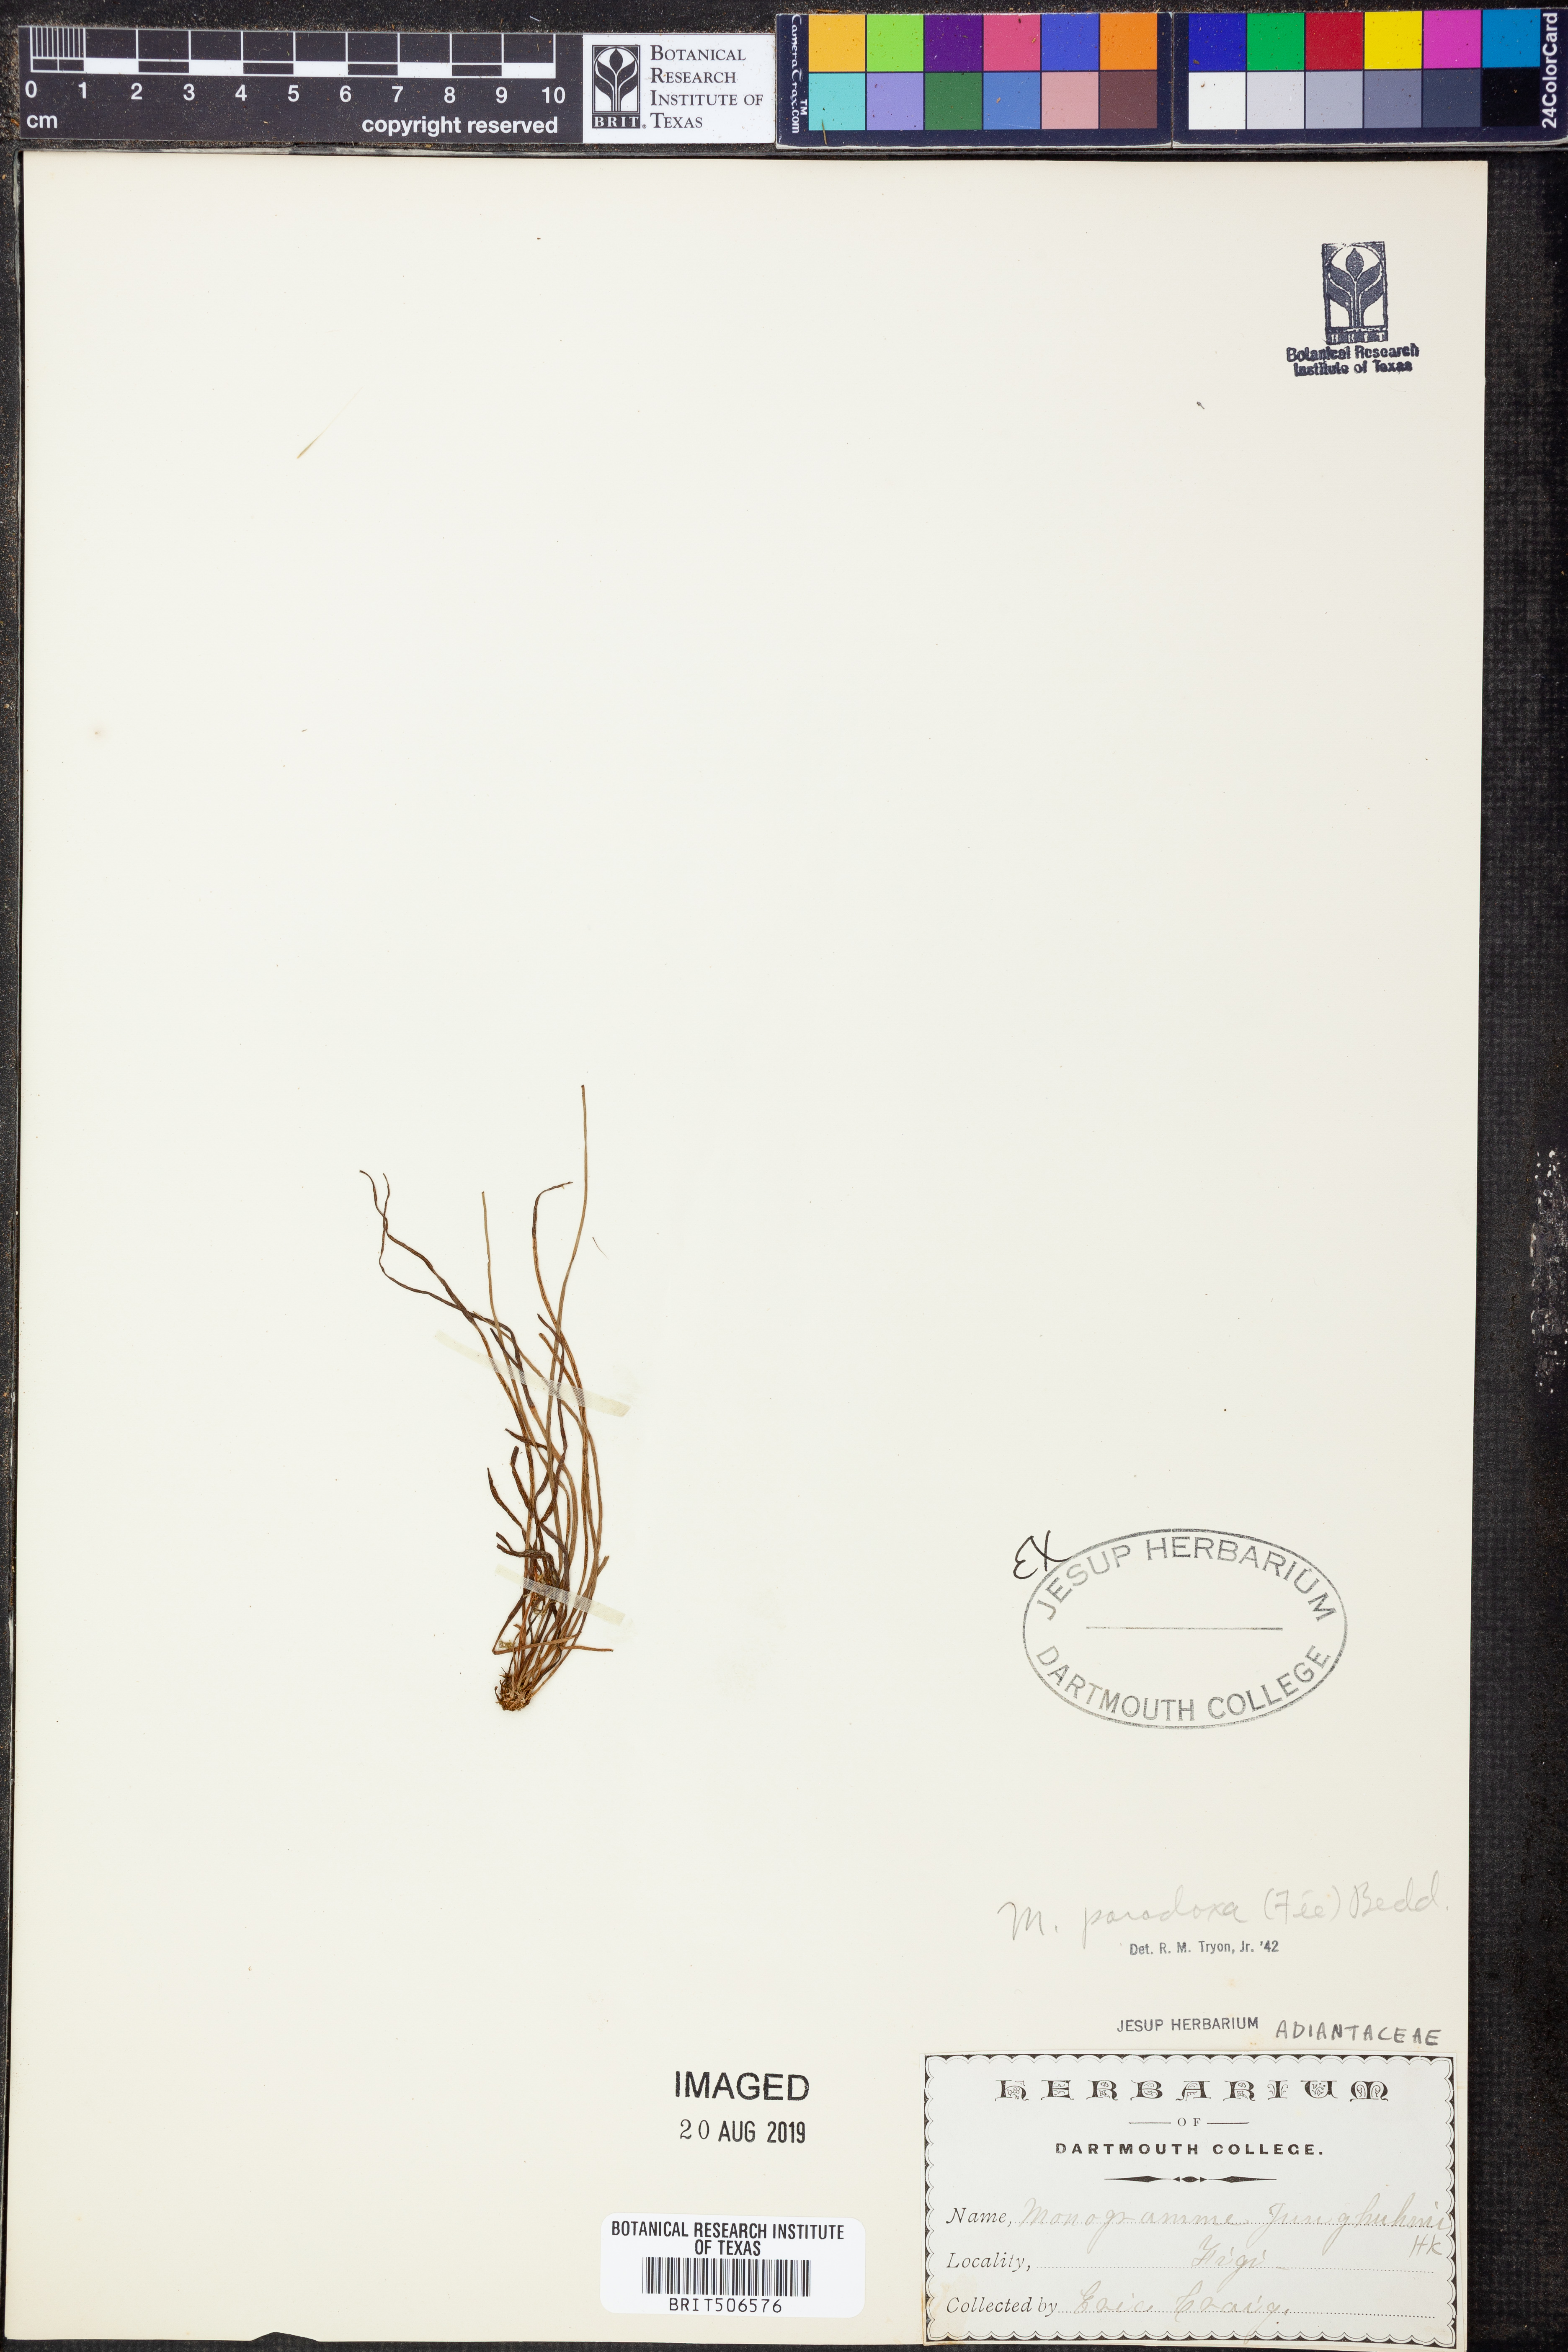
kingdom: Plantae
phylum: Tracheophyta
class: Polypodiopsida
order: Polypodiales
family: Pteridaceae
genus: Vaginularia
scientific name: Vaginularia paradoxa
